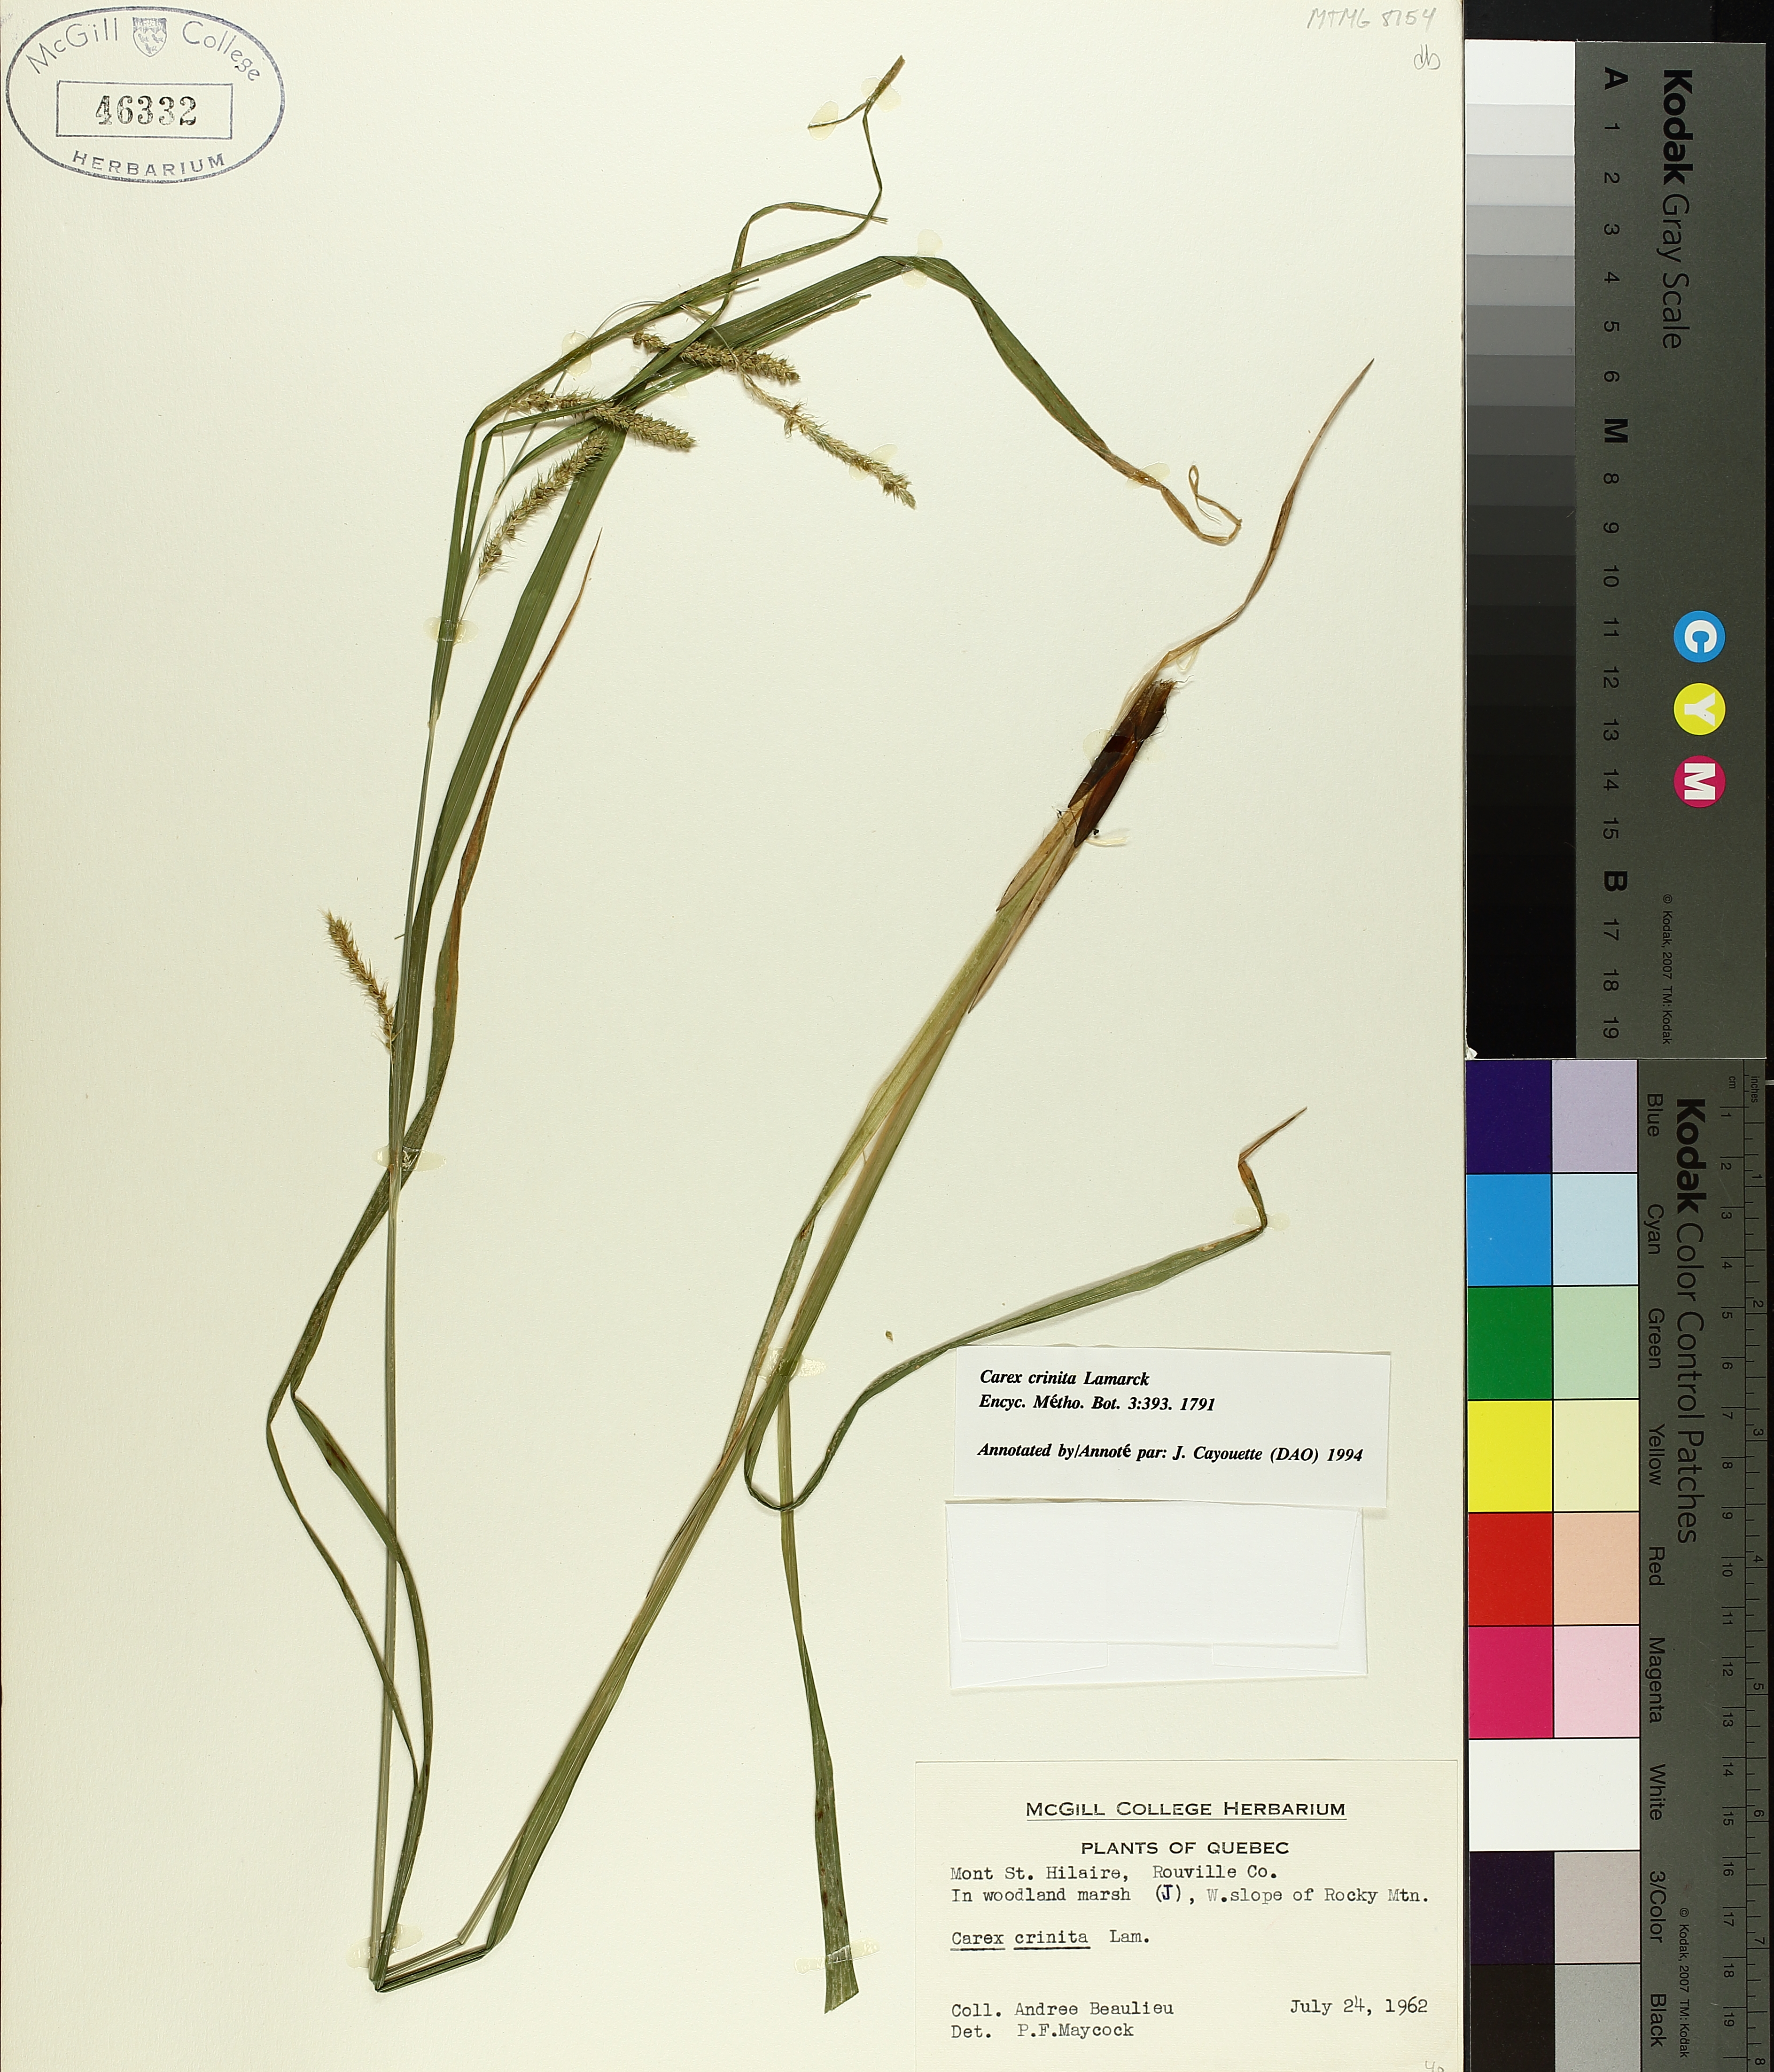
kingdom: Plantae
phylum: Tracheophyta
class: Liliopsida
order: Poales
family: Cyperaceae
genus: Carex
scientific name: Carex crinita
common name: Fringed sedge
